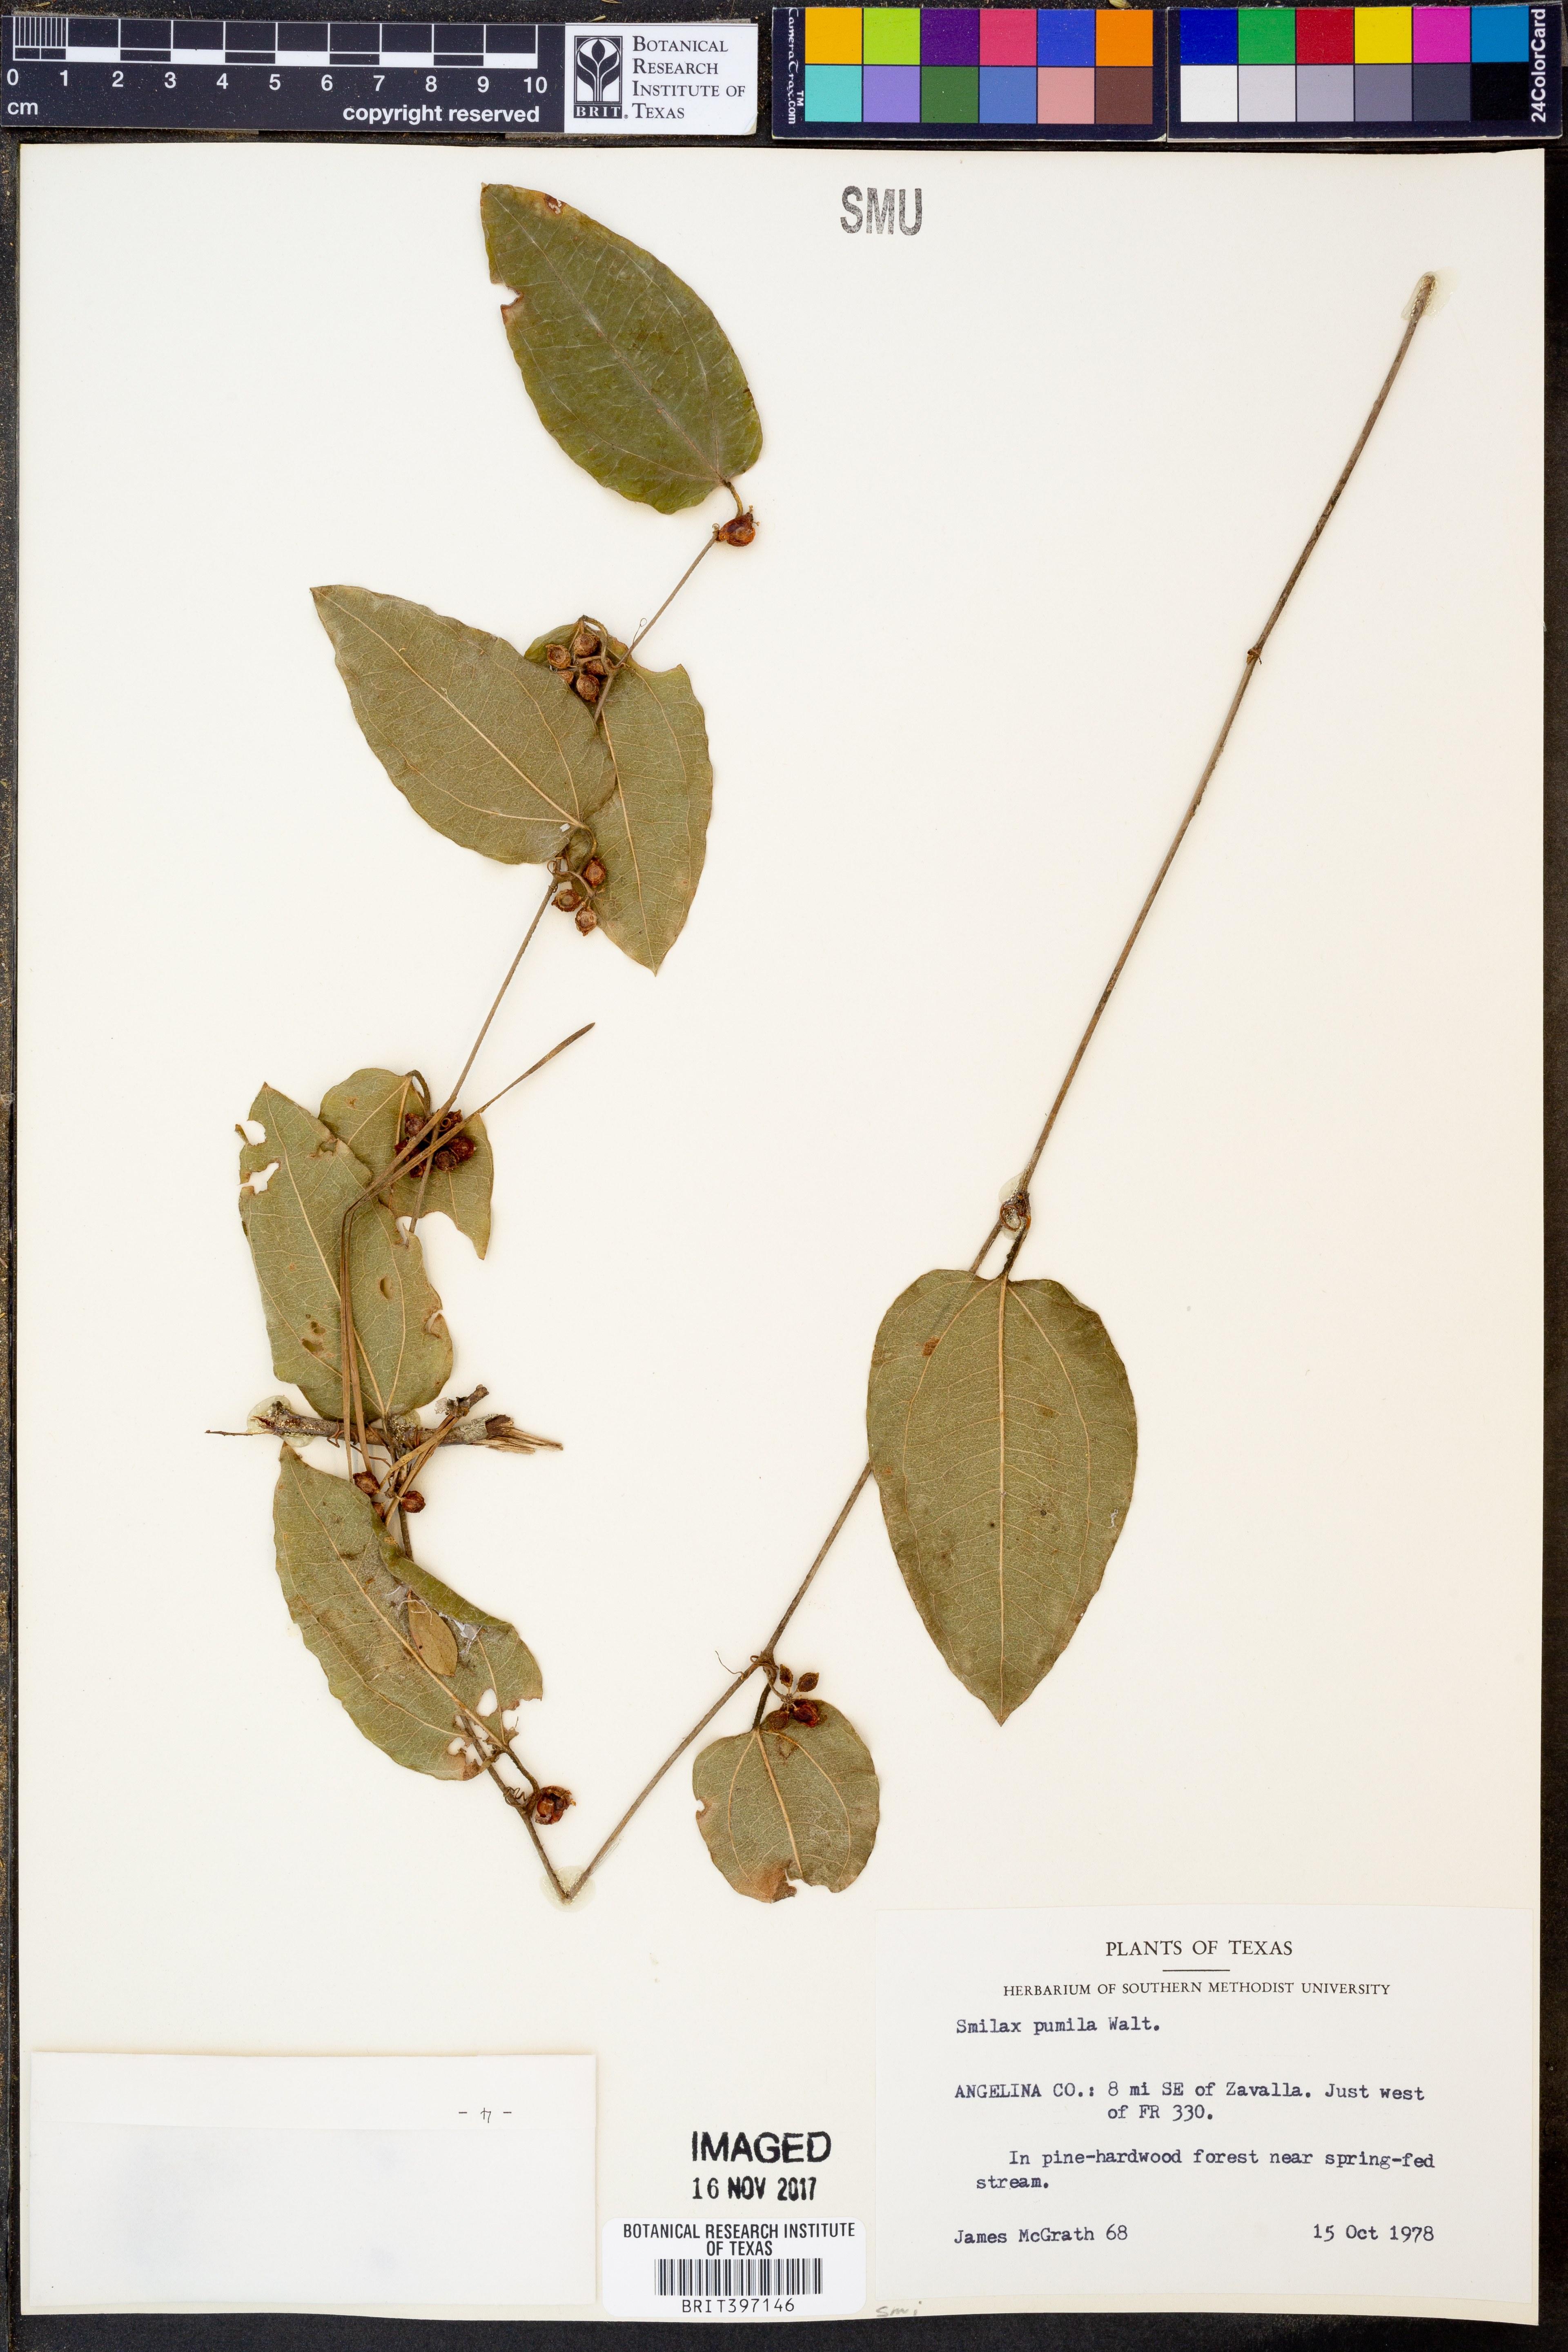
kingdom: Plantae
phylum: Tracheophyta
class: Liliopsida
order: Liliales
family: Smilacaceae
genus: Smilax
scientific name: Smilax pumila
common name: Sarsaparilla-vine
